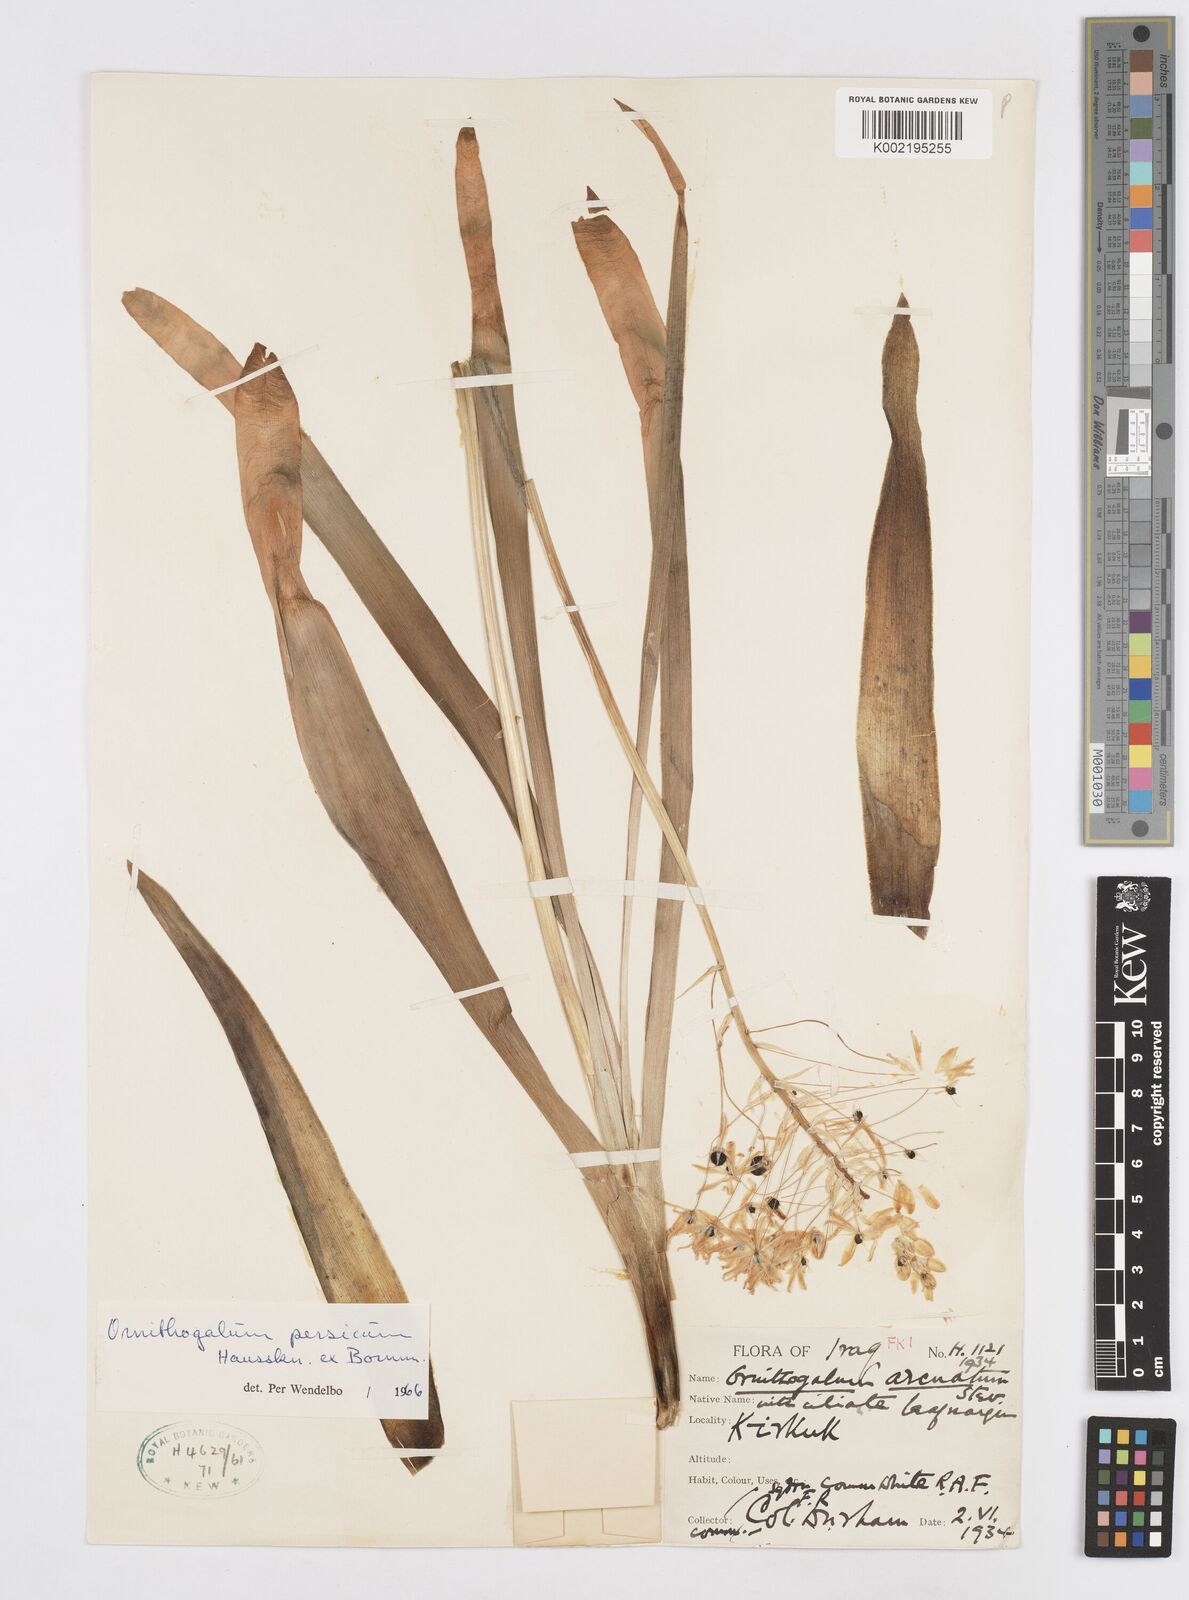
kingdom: Plantae
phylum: Tracheophyta
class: Liliopsida
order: Asparagales
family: Asparagaceae
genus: Ornithogalum
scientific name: Ornithogalum persicum
